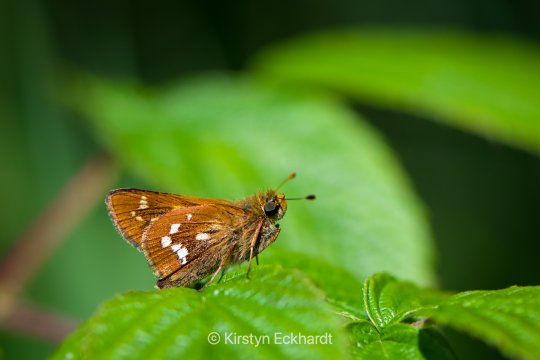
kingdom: Animalia
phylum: Arthropoda
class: Insecta
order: Lepidoptera
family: Hesperiidae
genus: Hesperia
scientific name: Hesperia leonardus
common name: Leonard's Skipper
